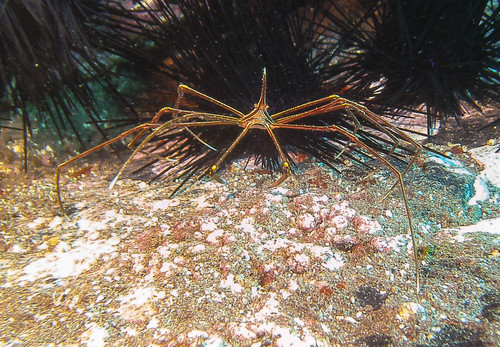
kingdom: Animalia
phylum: Arthropoda
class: Malacostraca
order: Decapoda
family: Inachoididae
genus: Stenorhynchus
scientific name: Stenorhynchus lanceolatus
